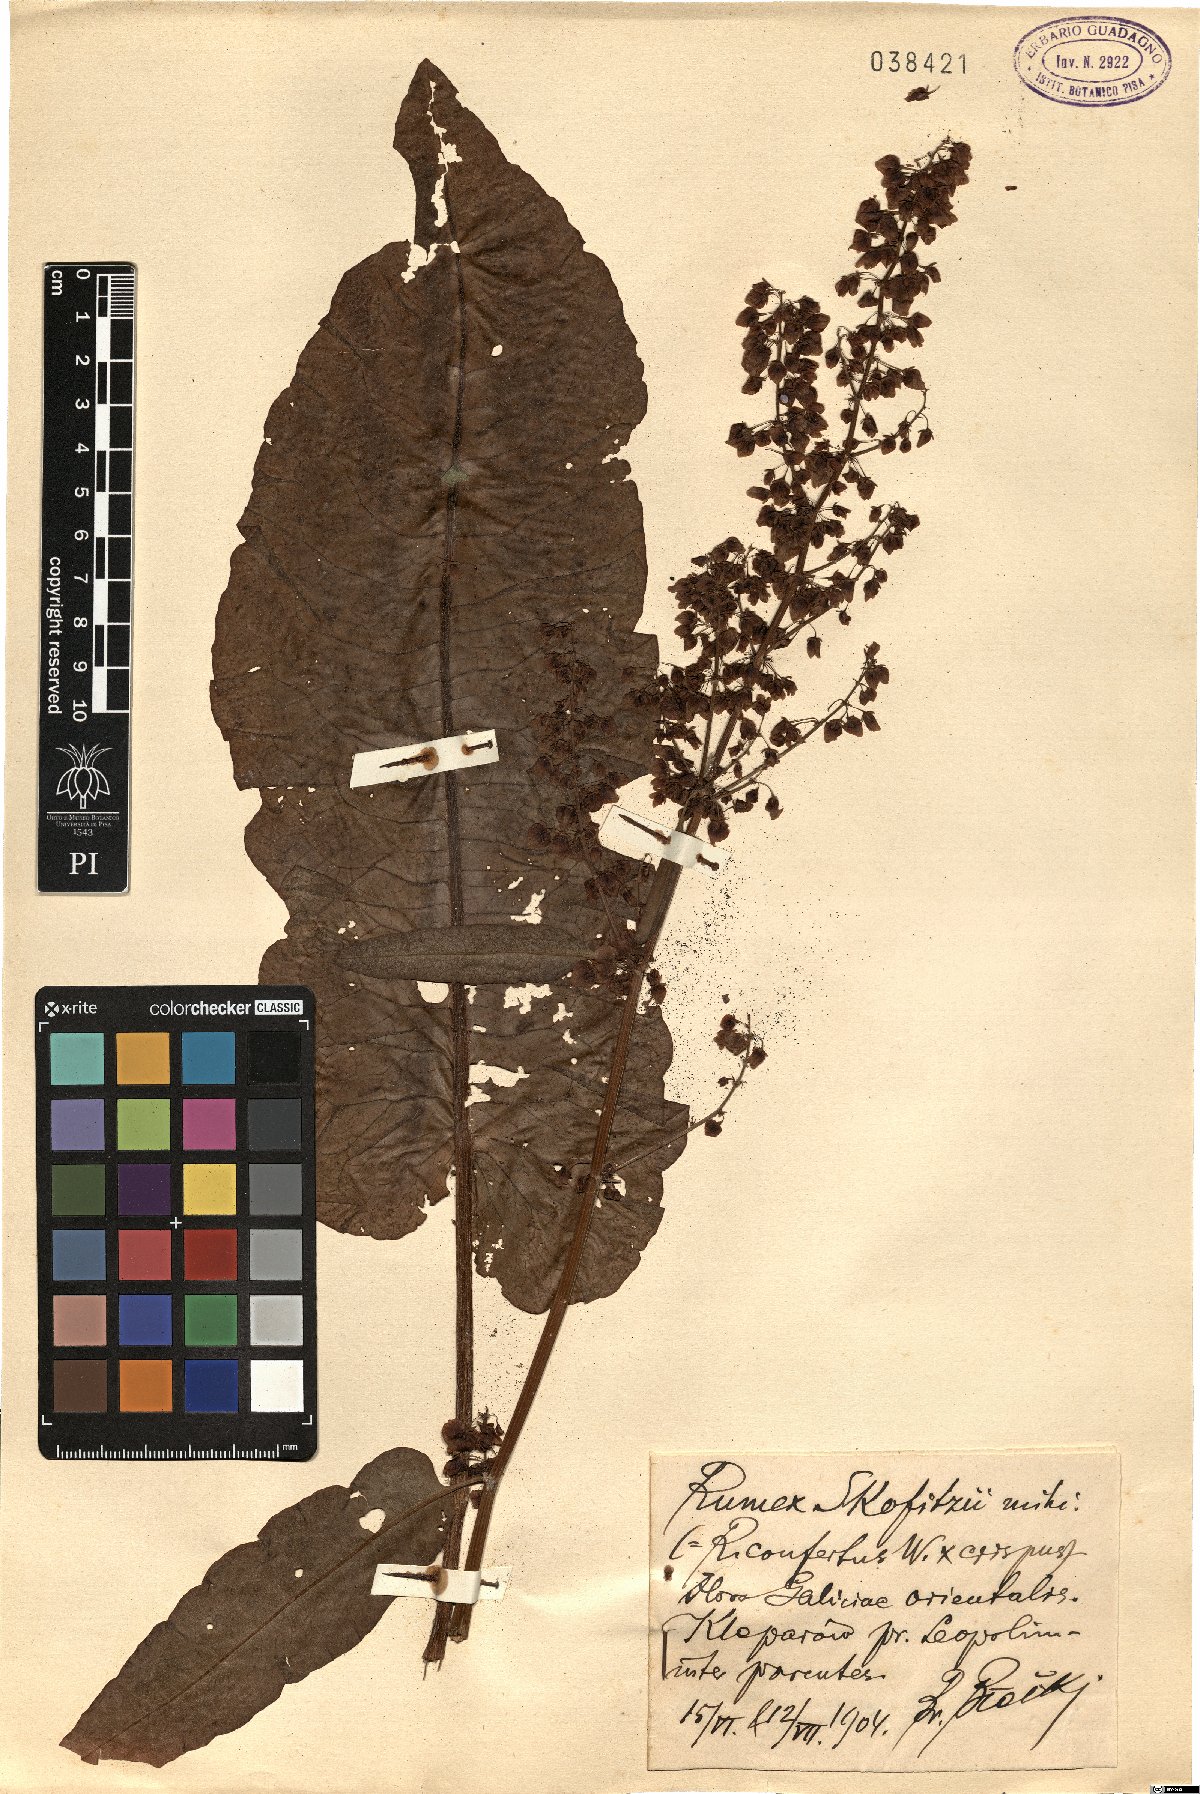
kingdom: Plantae
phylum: Tracheophyta
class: Magnoliopsida
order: Caryophyllales
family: Polygonaceae
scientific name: Polygonaceae
